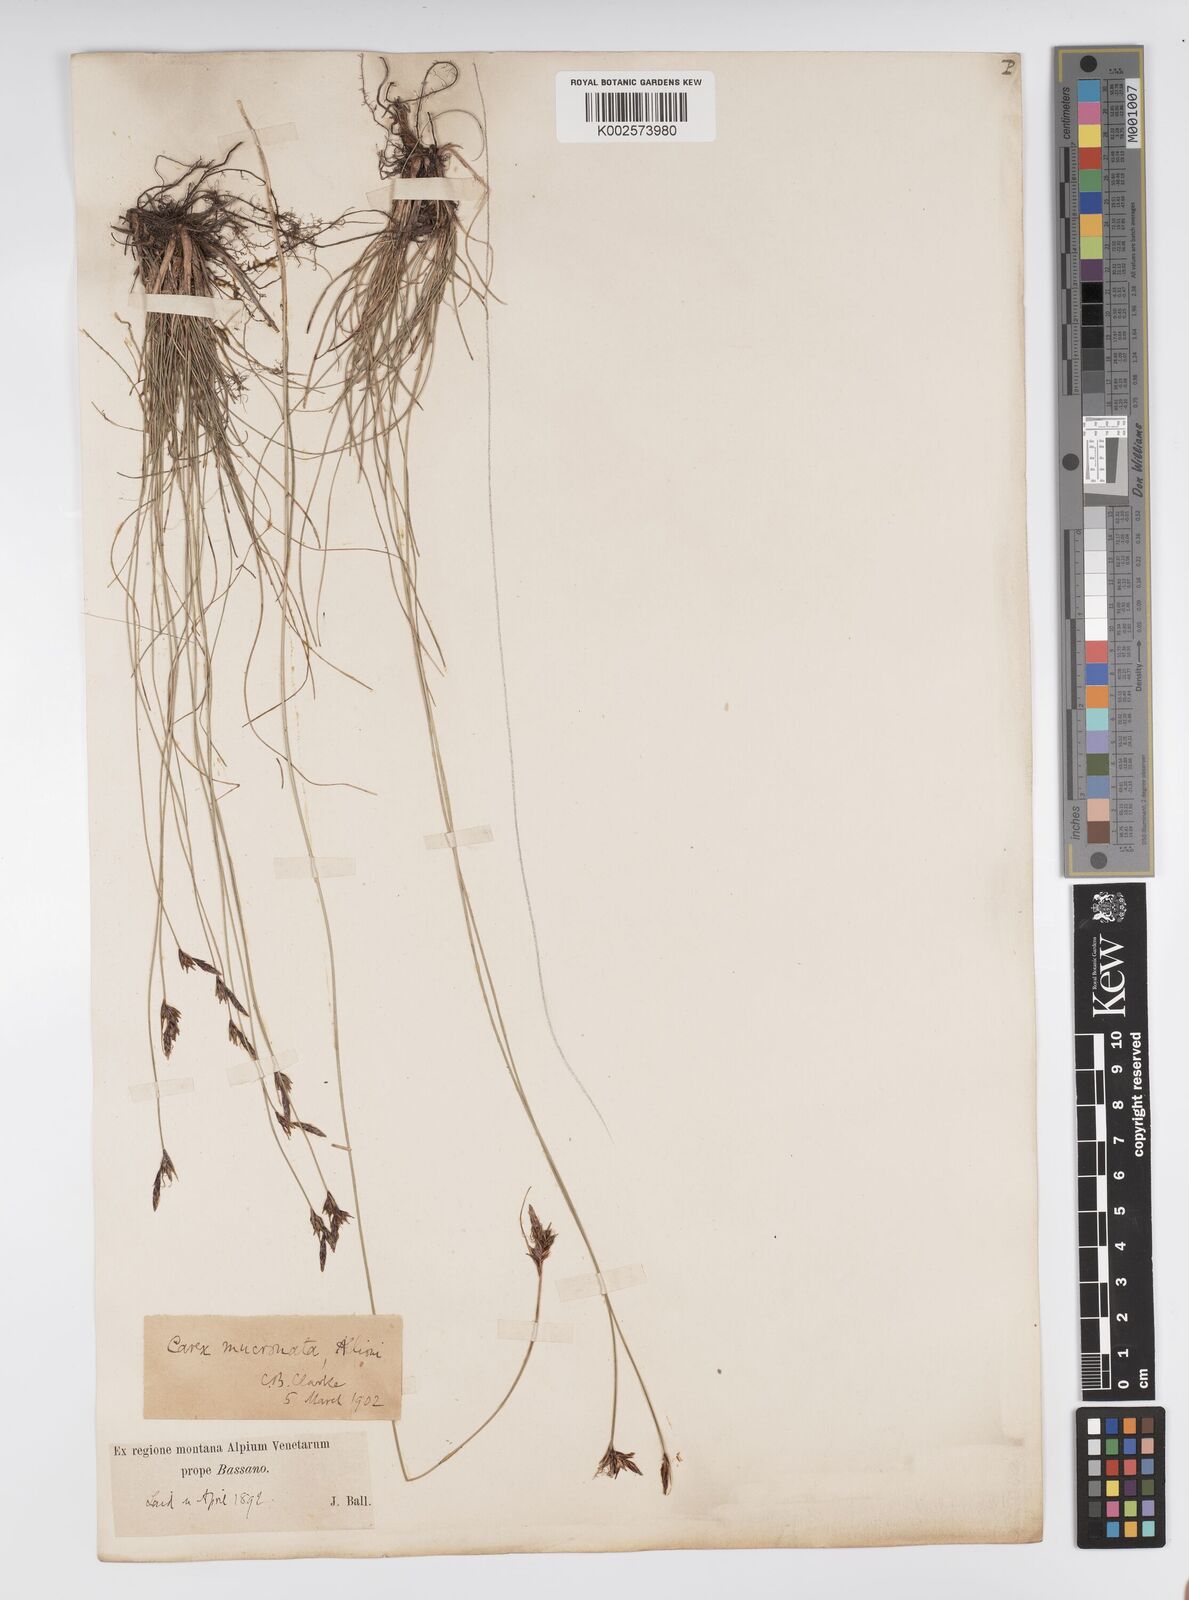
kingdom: Plantae
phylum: Tracheophyta
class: Liliopsida
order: Poales
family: Cyperaceae
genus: Carex
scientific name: Carex mucronata
